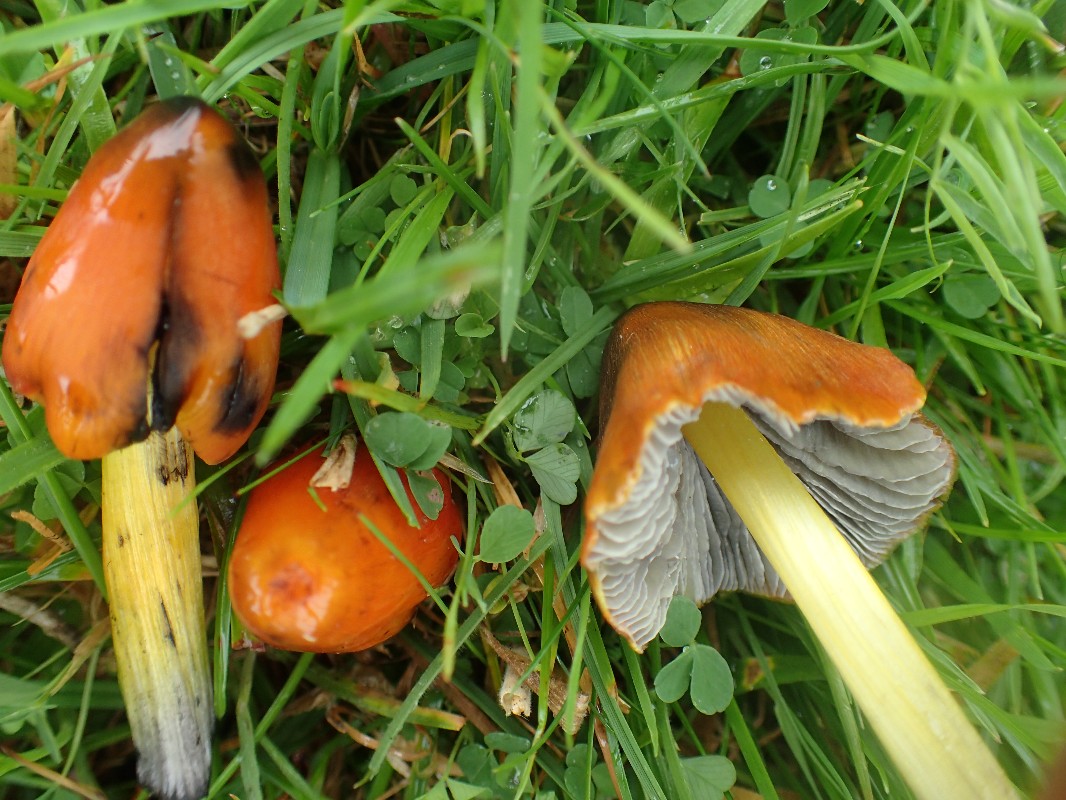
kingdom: Fungi
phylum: Basidiomycota
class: Agaricomycetes
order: Agaricales
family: Hygrophoraceae
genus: Hygrocybe
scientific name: Hygrocybe conica
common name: kegle-vokshat
